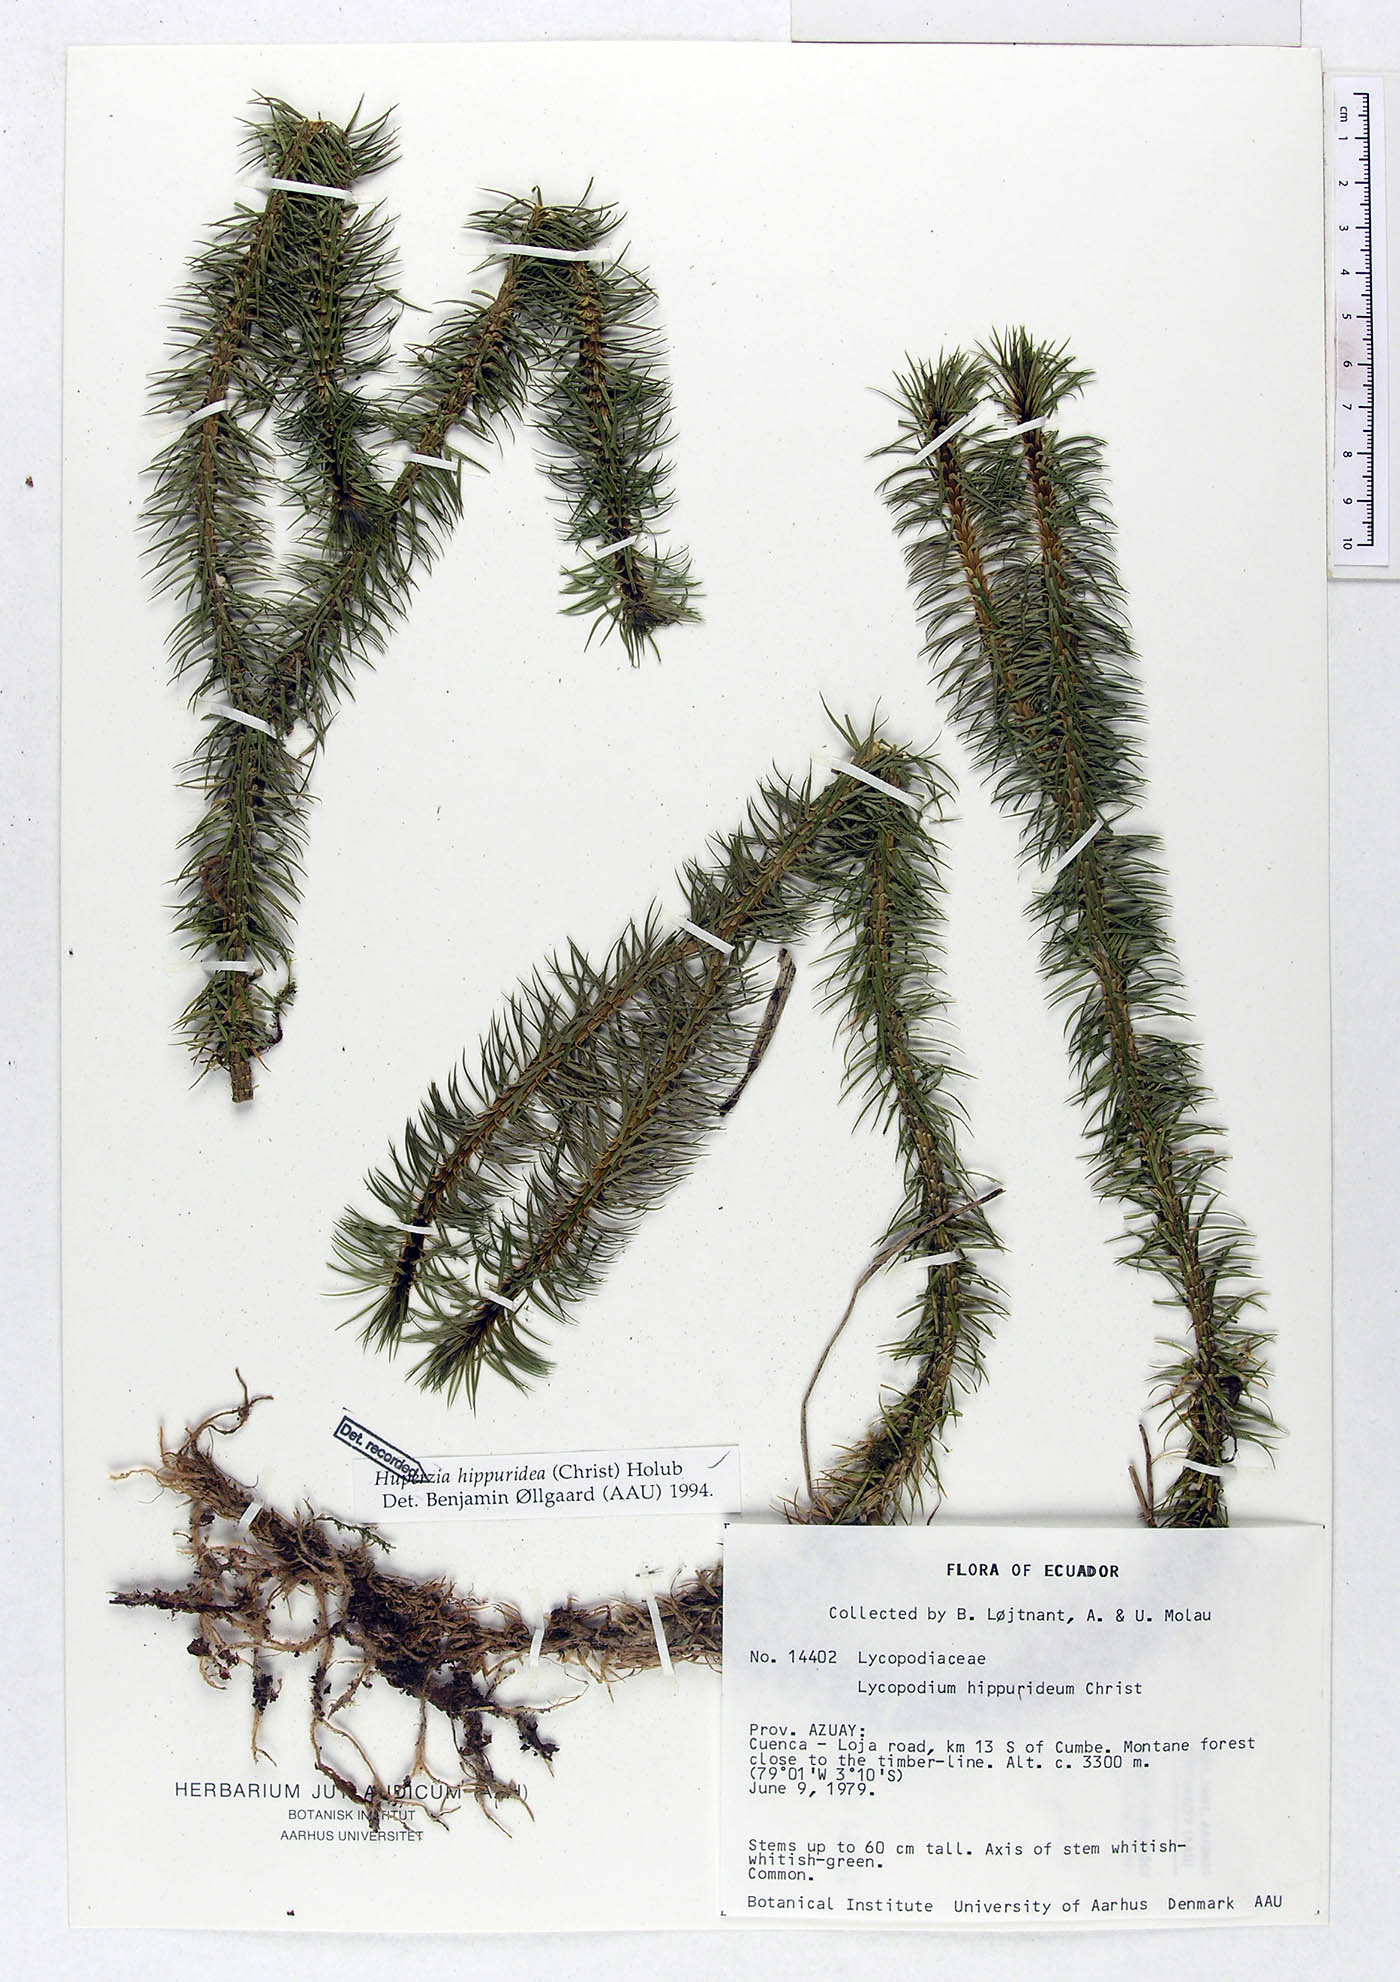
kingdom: Plantae
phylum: Tracheophyta
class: Lycopodiopsida
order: Lycopodiales
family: Lycopodiaceae
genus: Phlegmariurus
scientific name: Phlegmariurus hippurideus
